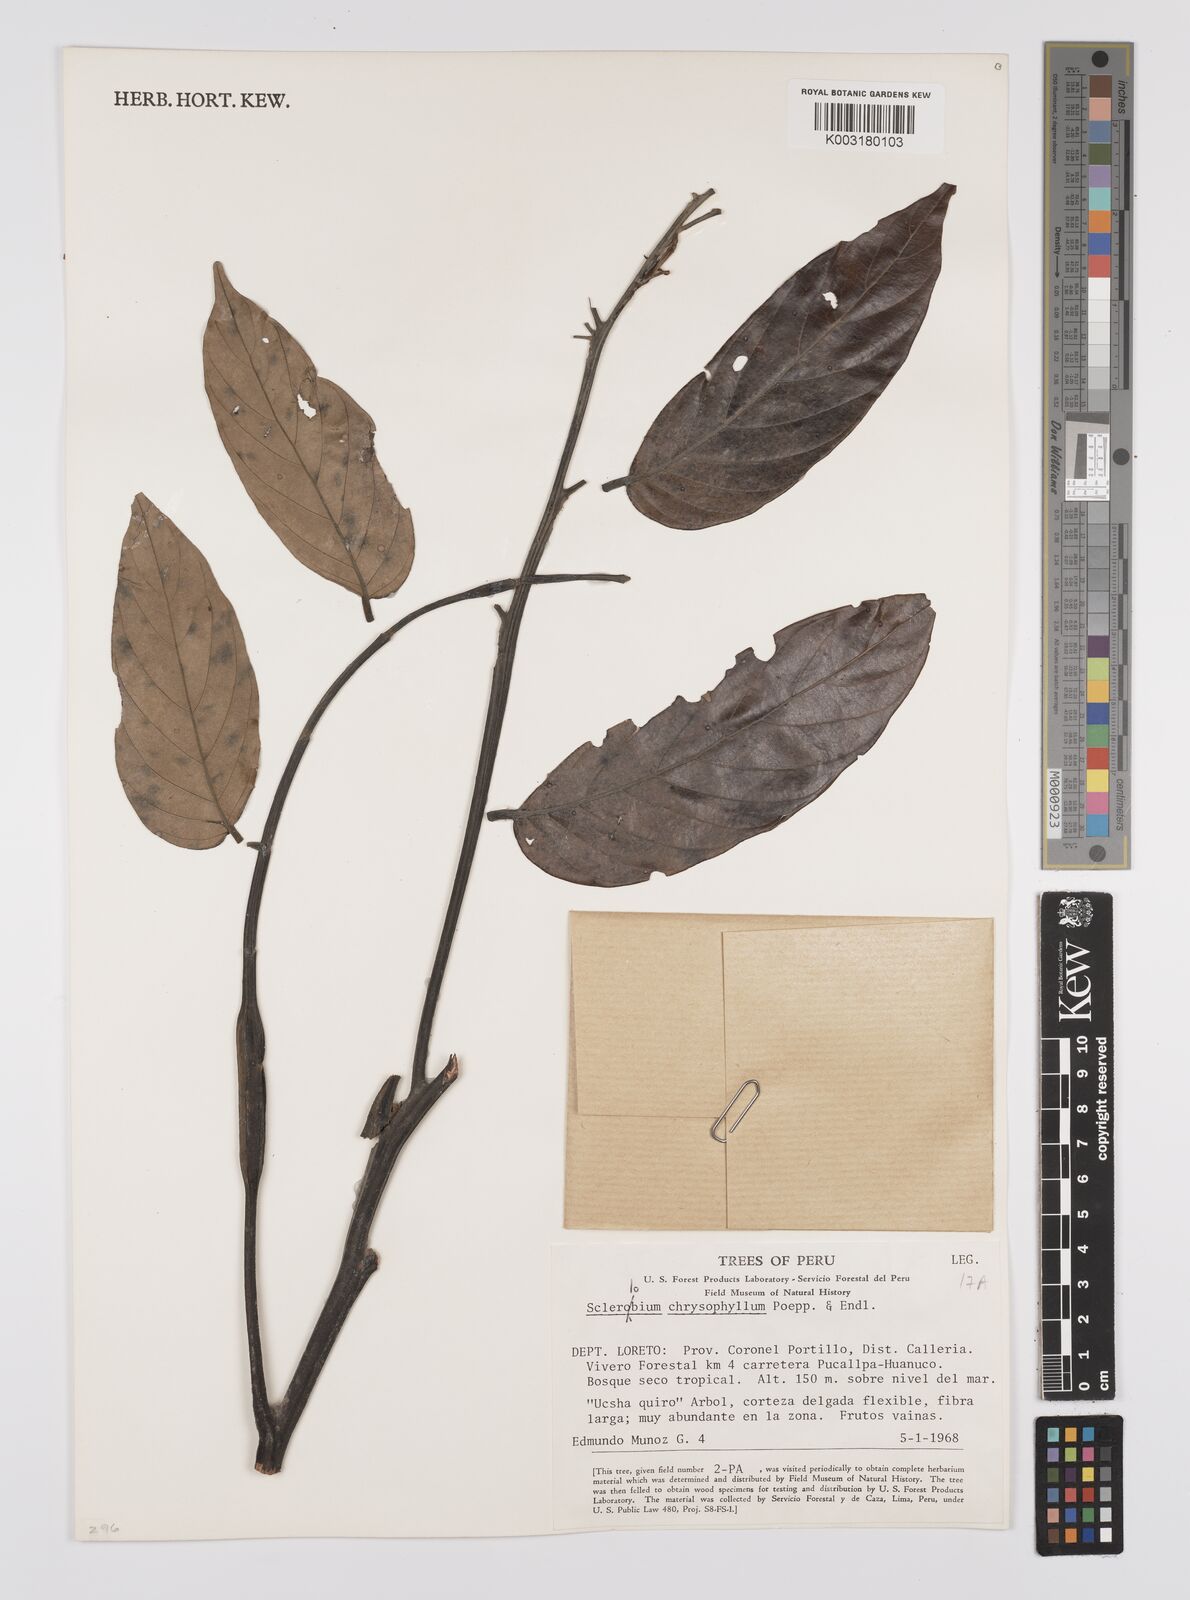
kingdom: Plantae
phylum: Tracheophyta
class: Magnoliopsida
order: Fabales
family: Fabaceae
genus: Tachigali
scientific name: Tachigali chrysophylla
